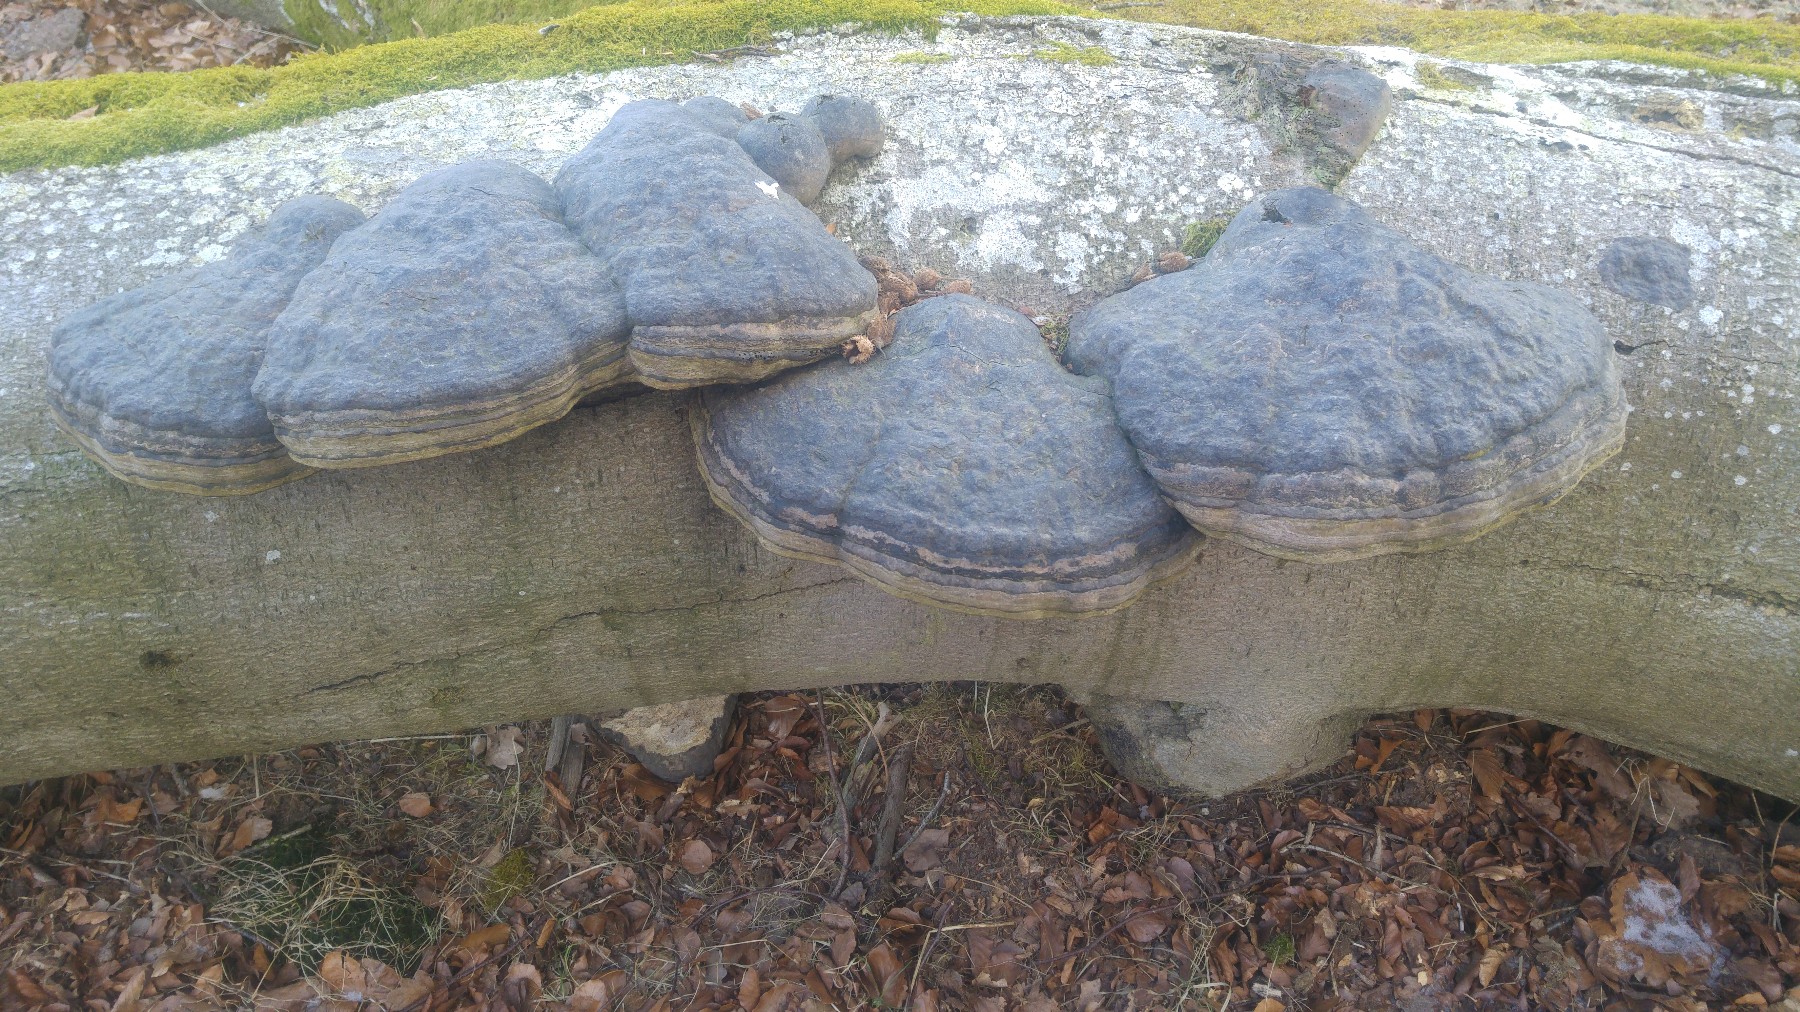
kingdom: Fungi
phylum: Basidiomycota
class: Agaricomycetes
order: Polyporales
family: Polyporaceae
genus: Fomes
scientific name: Fomes fomentarius
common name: tøndersvamp
